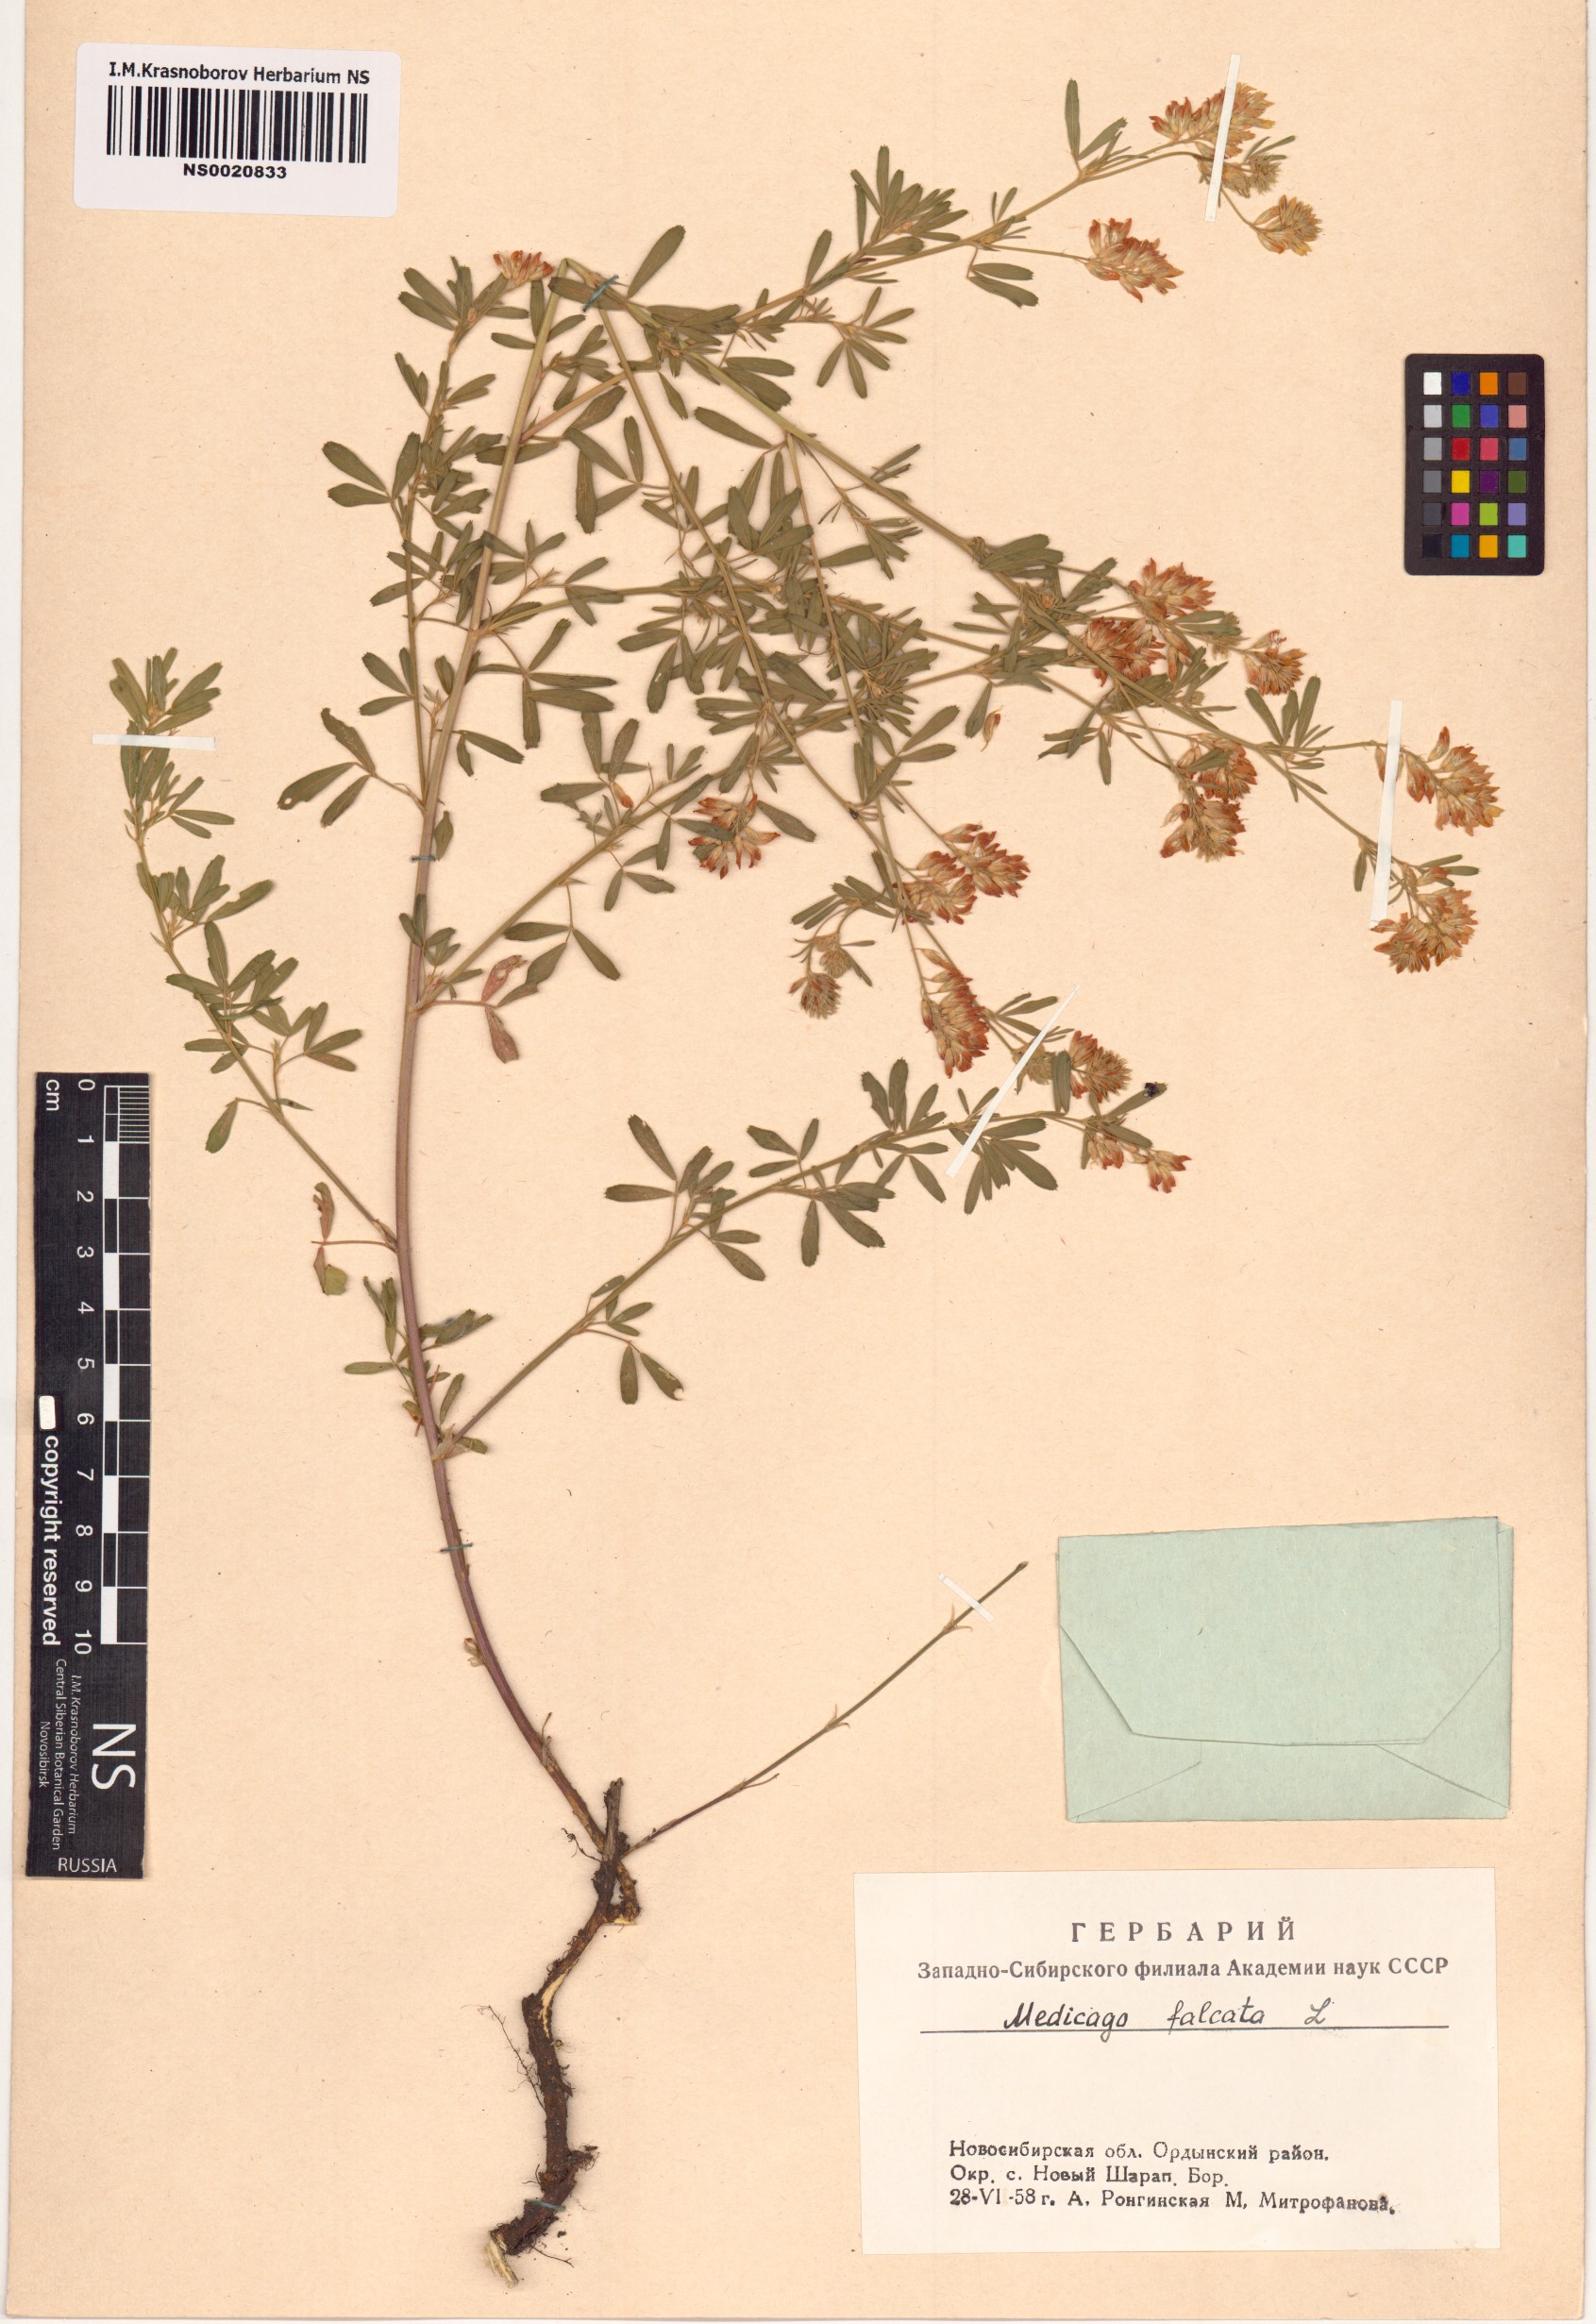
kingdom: Plantae
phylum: Tracheophyta
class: Magnoliopsida
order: Fabales
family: Fabaceae
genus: Medicago
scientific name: Medicago falcata
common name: Sickle medick
